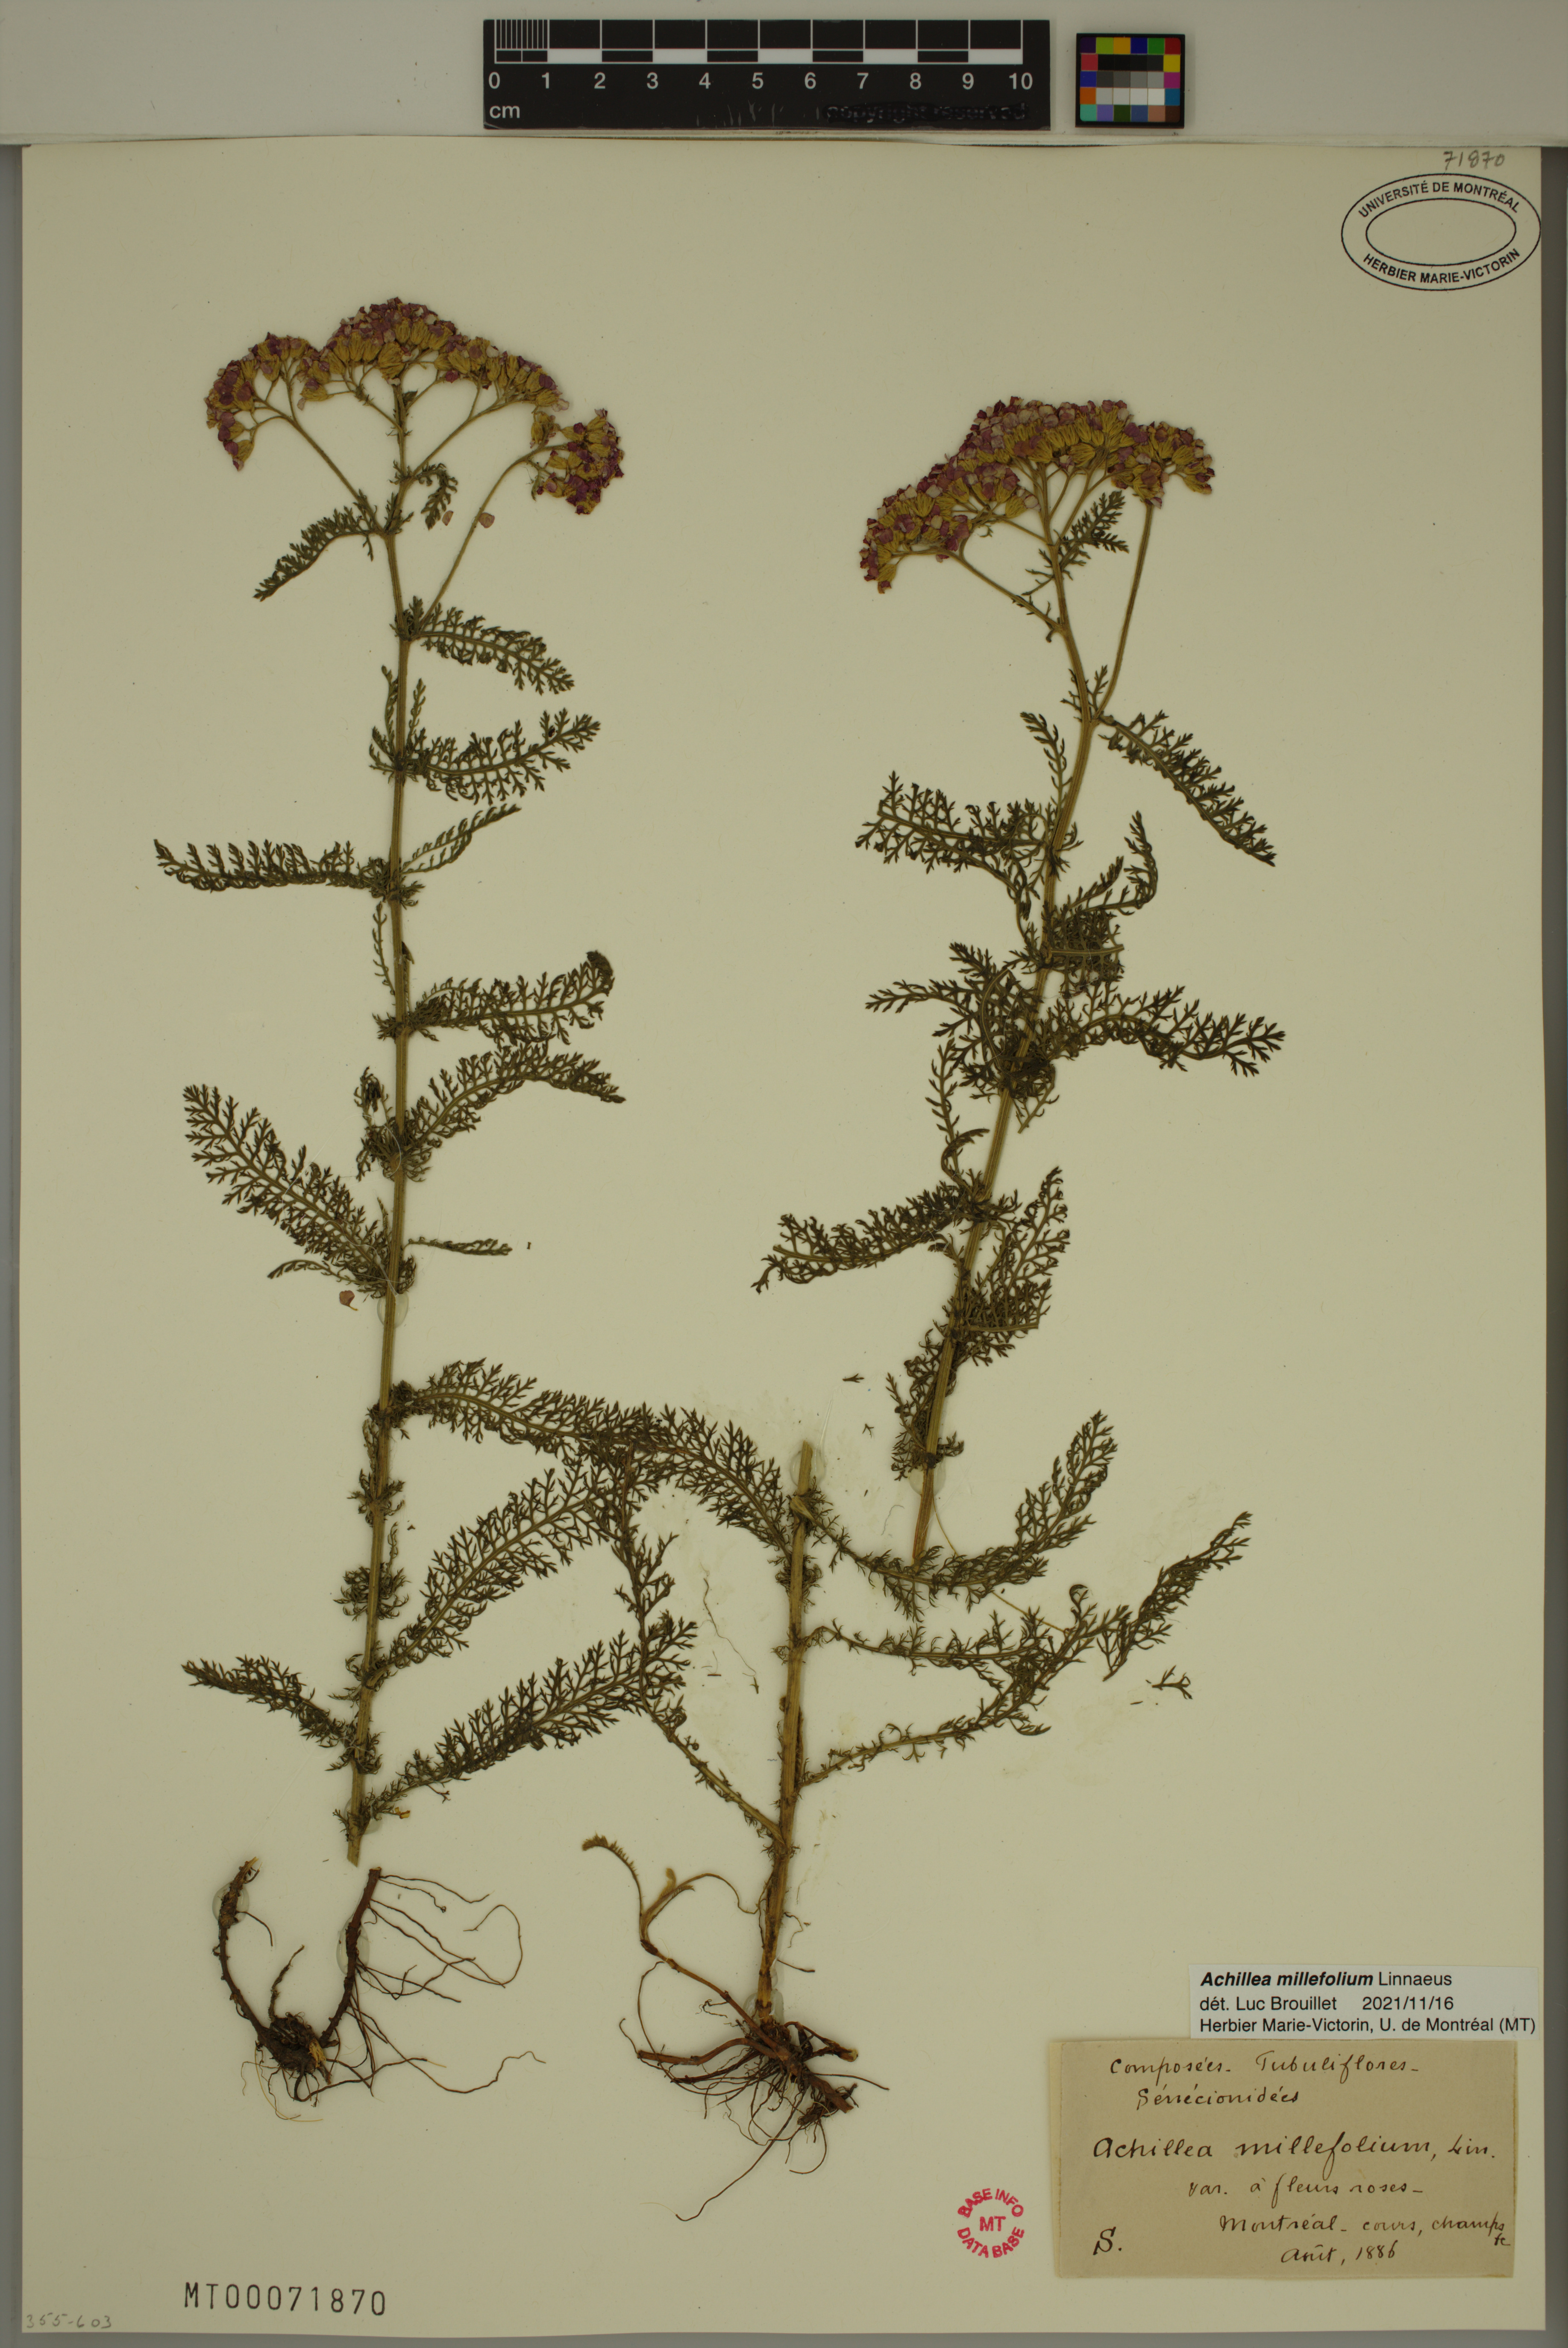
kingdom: Plantae
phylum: Tracheophyta
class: Magnoliopsida
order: Asterales
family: Asteraceae
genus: Achillea
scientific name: Achillea millefolium
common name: Yarrow
